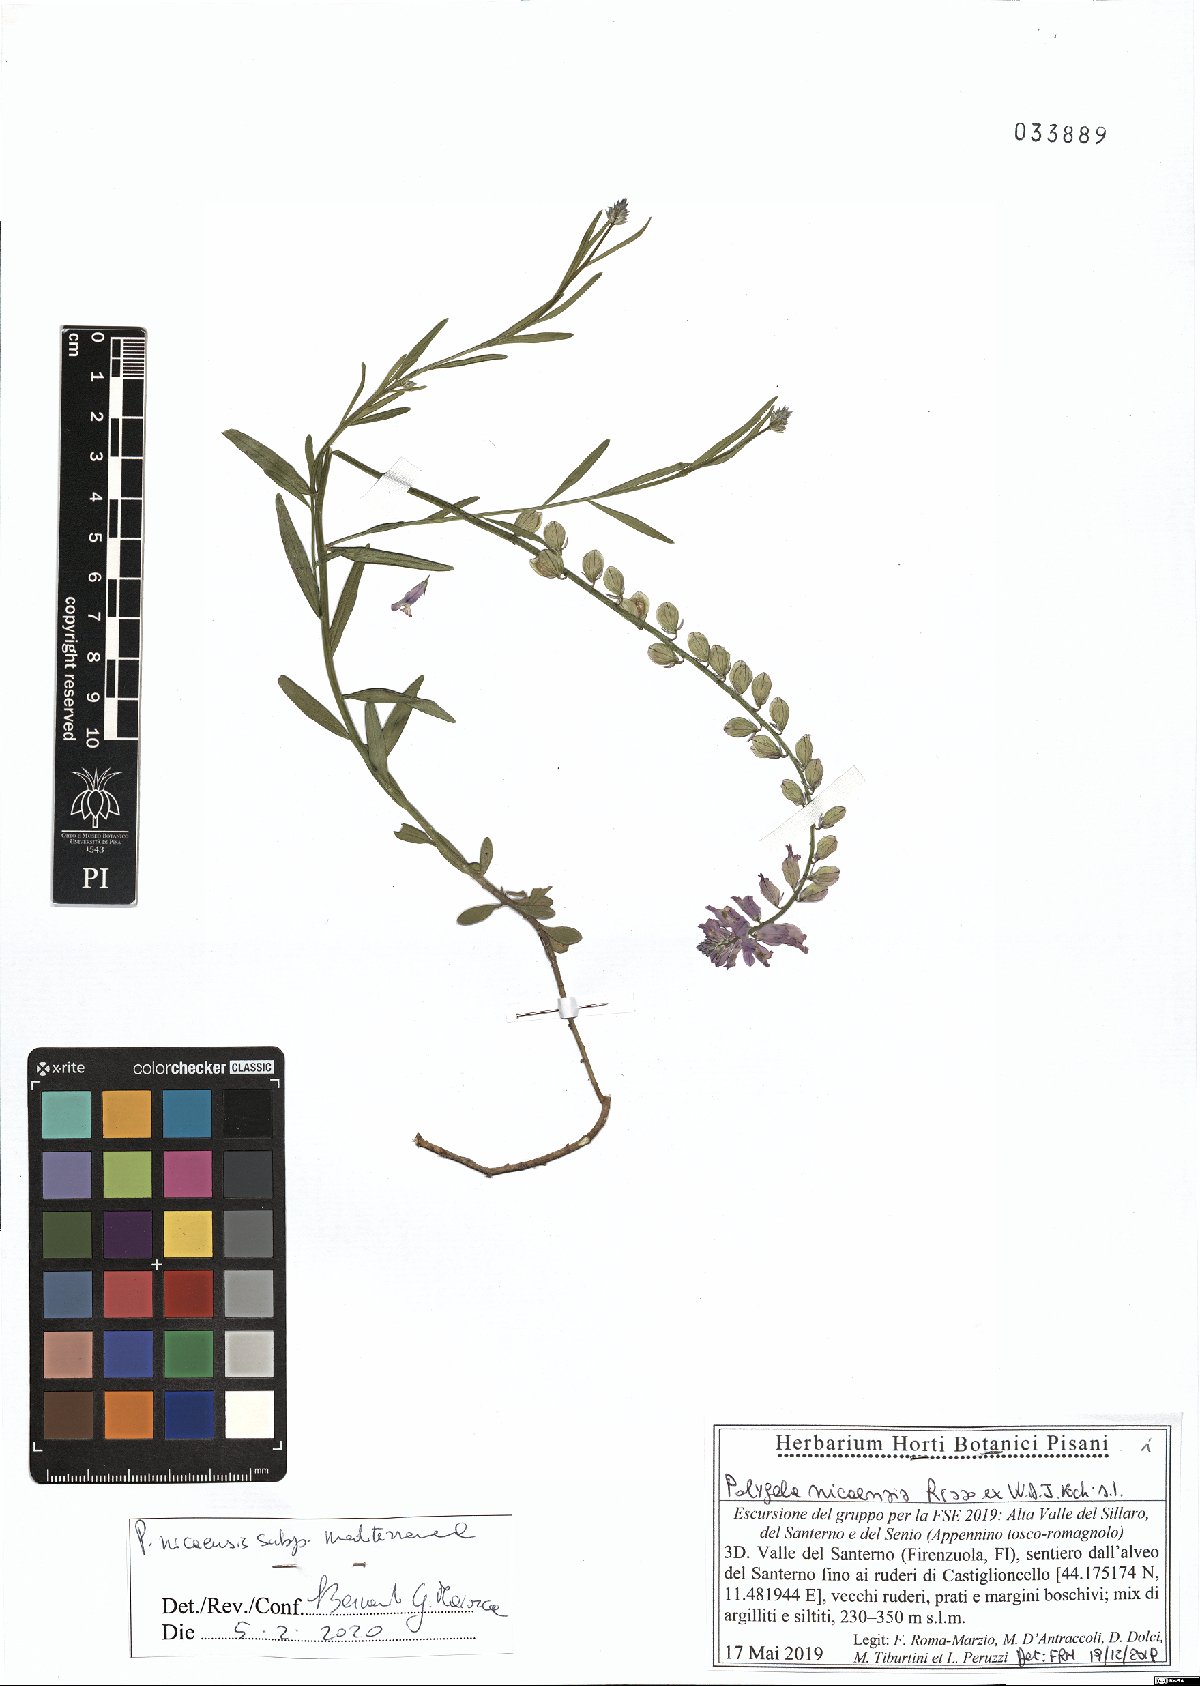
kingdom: Plantae
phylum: Tracheophyta
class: Magnoliopsida
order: Fabales
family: Polygalaceae
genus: Polygala
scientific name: Polygala nicaeensis
